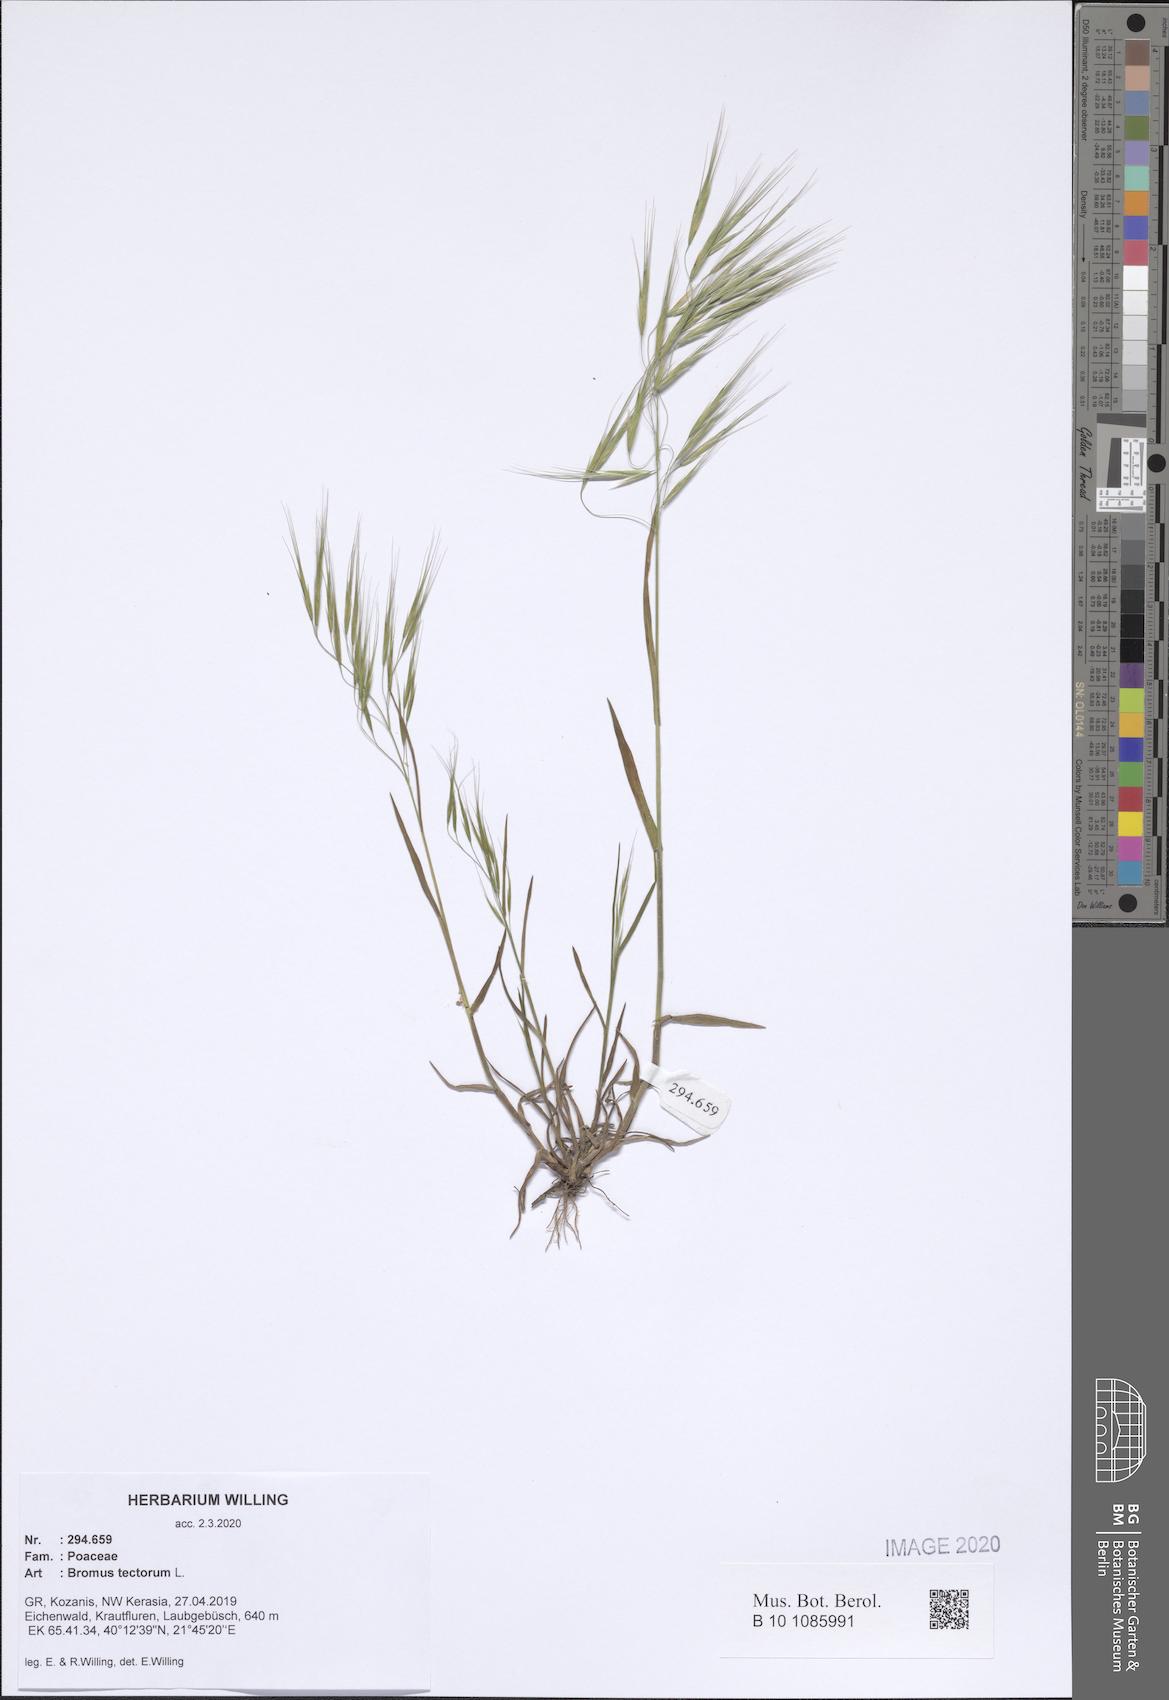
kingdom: Plantae
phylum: Tracheophyta
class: Liliopsida
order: Poales
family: Poaceae
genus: Bromus
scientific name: Bromus tectorum
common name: Cheatgrass
